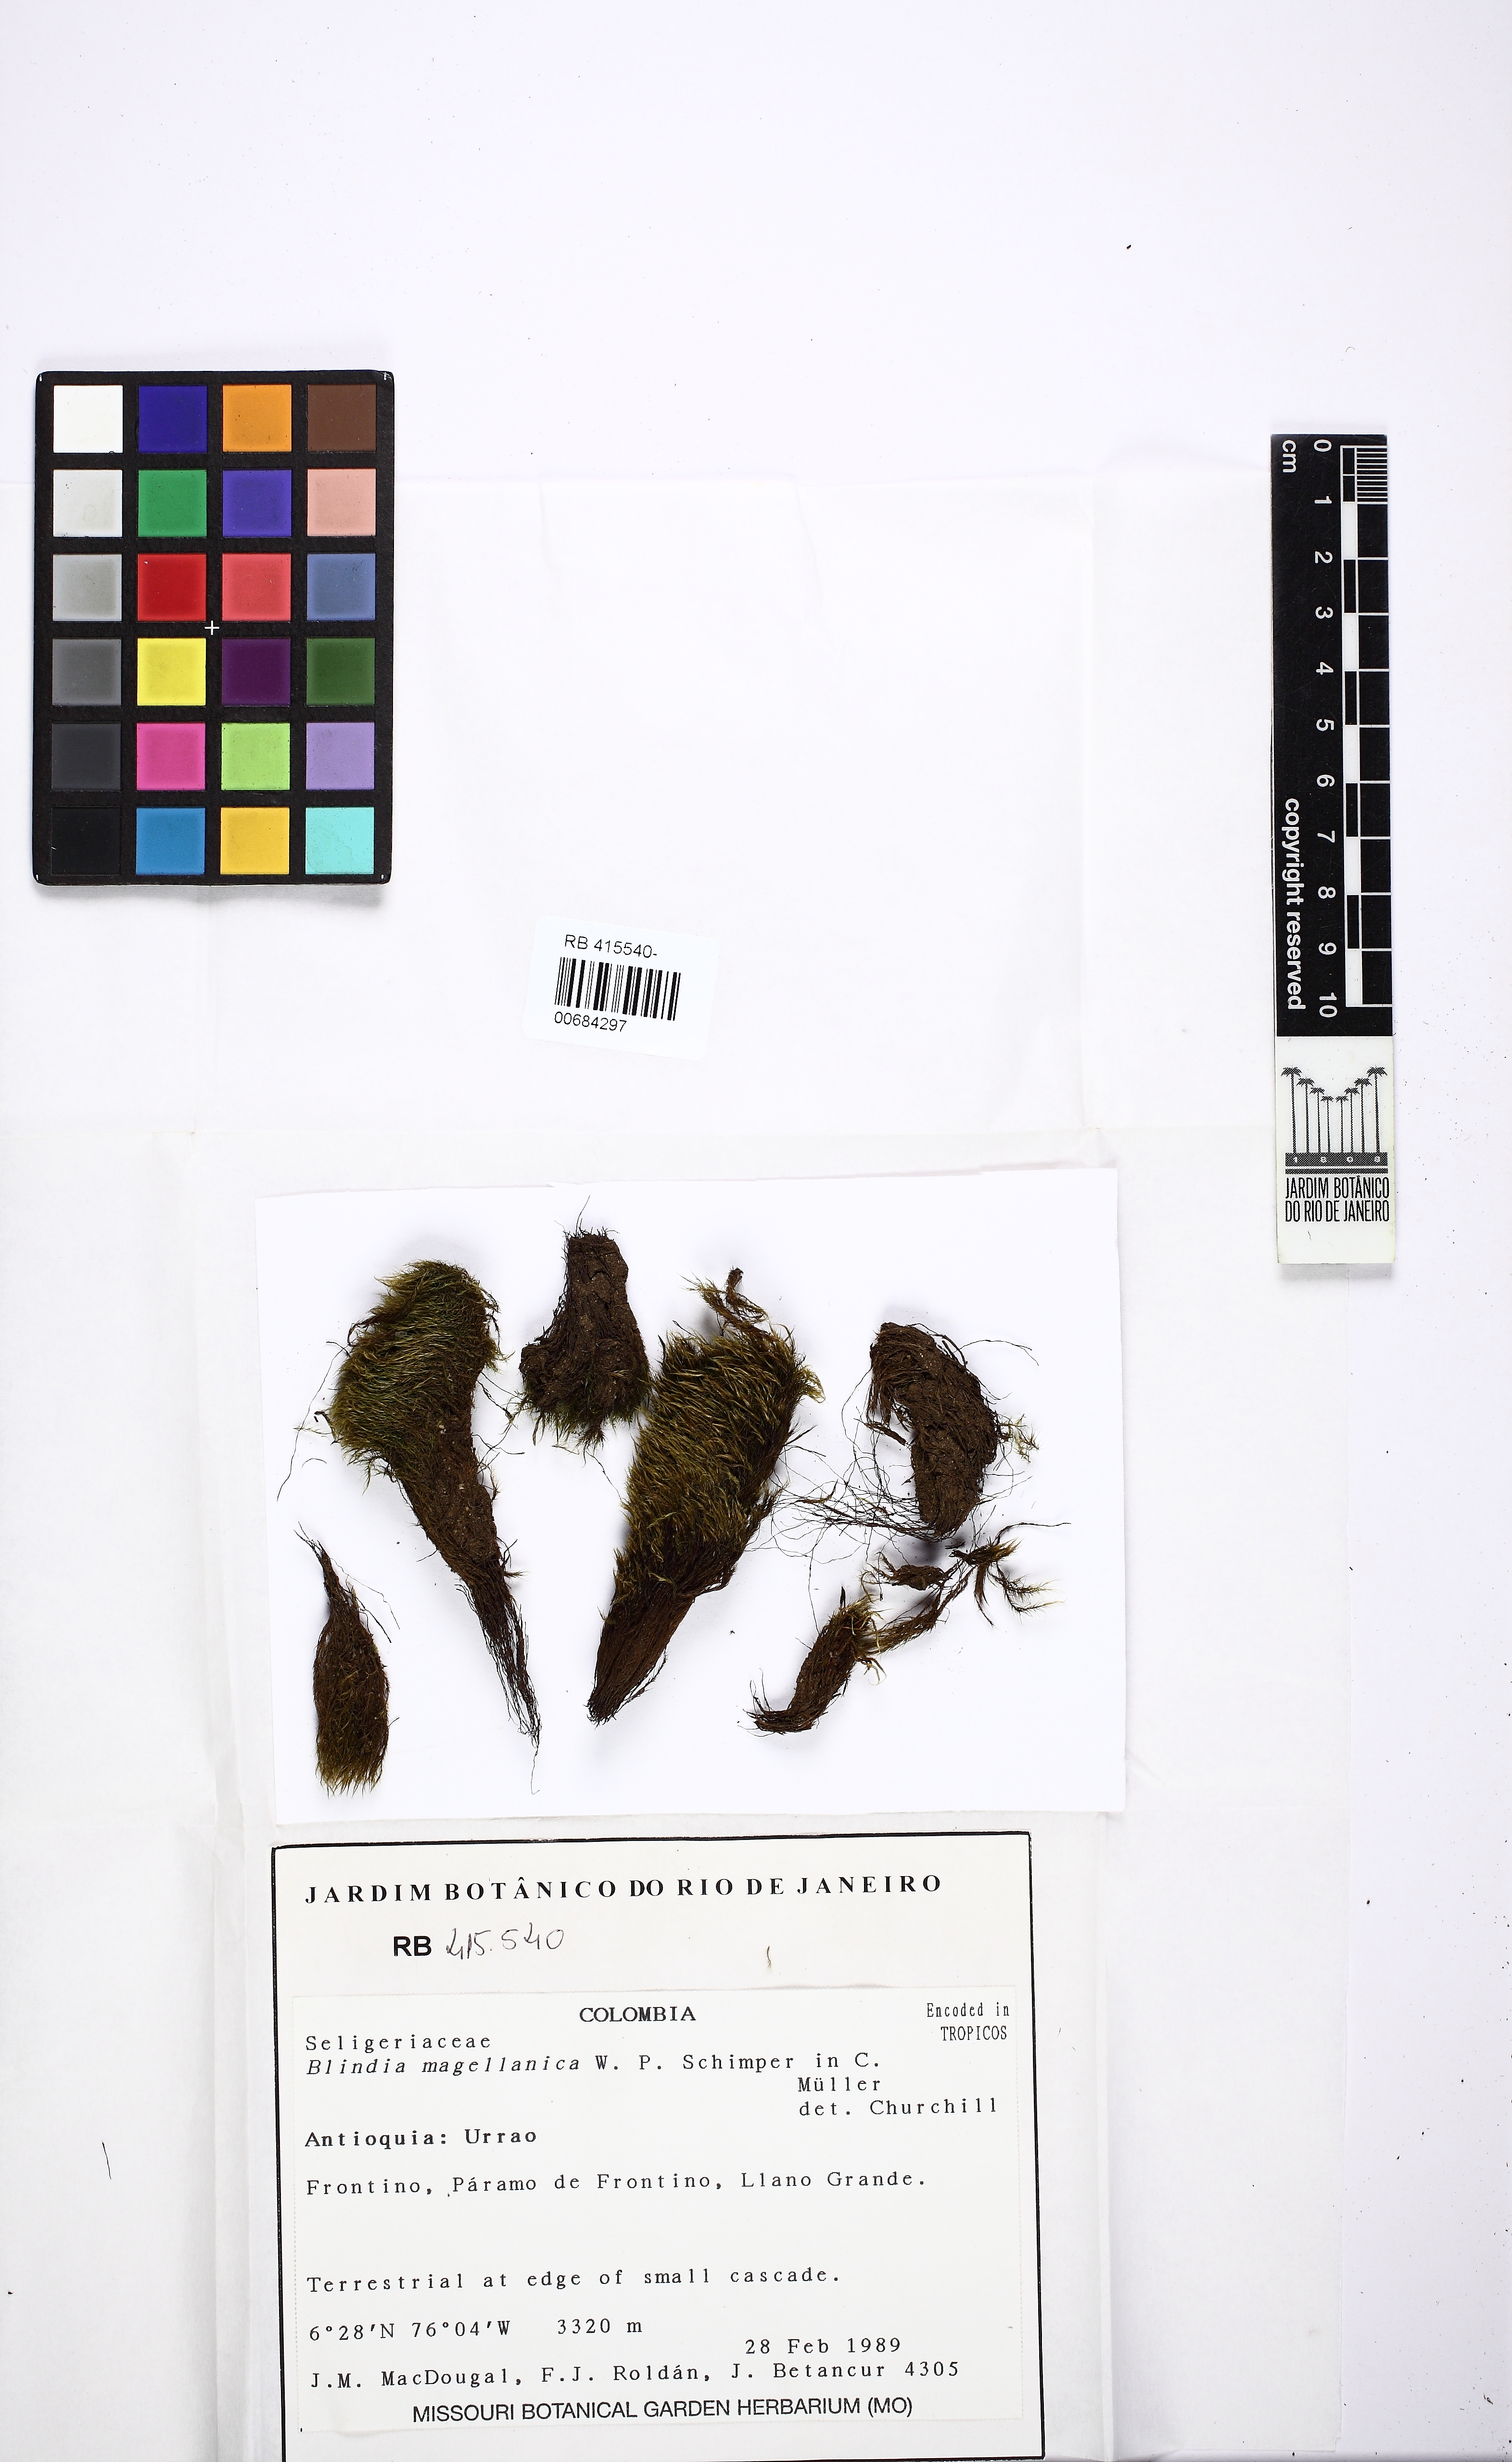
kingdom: Plantae
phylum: Bryophyta
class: Bryopsida
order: Grimmiales
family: Seligeriaceae
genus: Blindia
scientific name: Blindia magellanica
